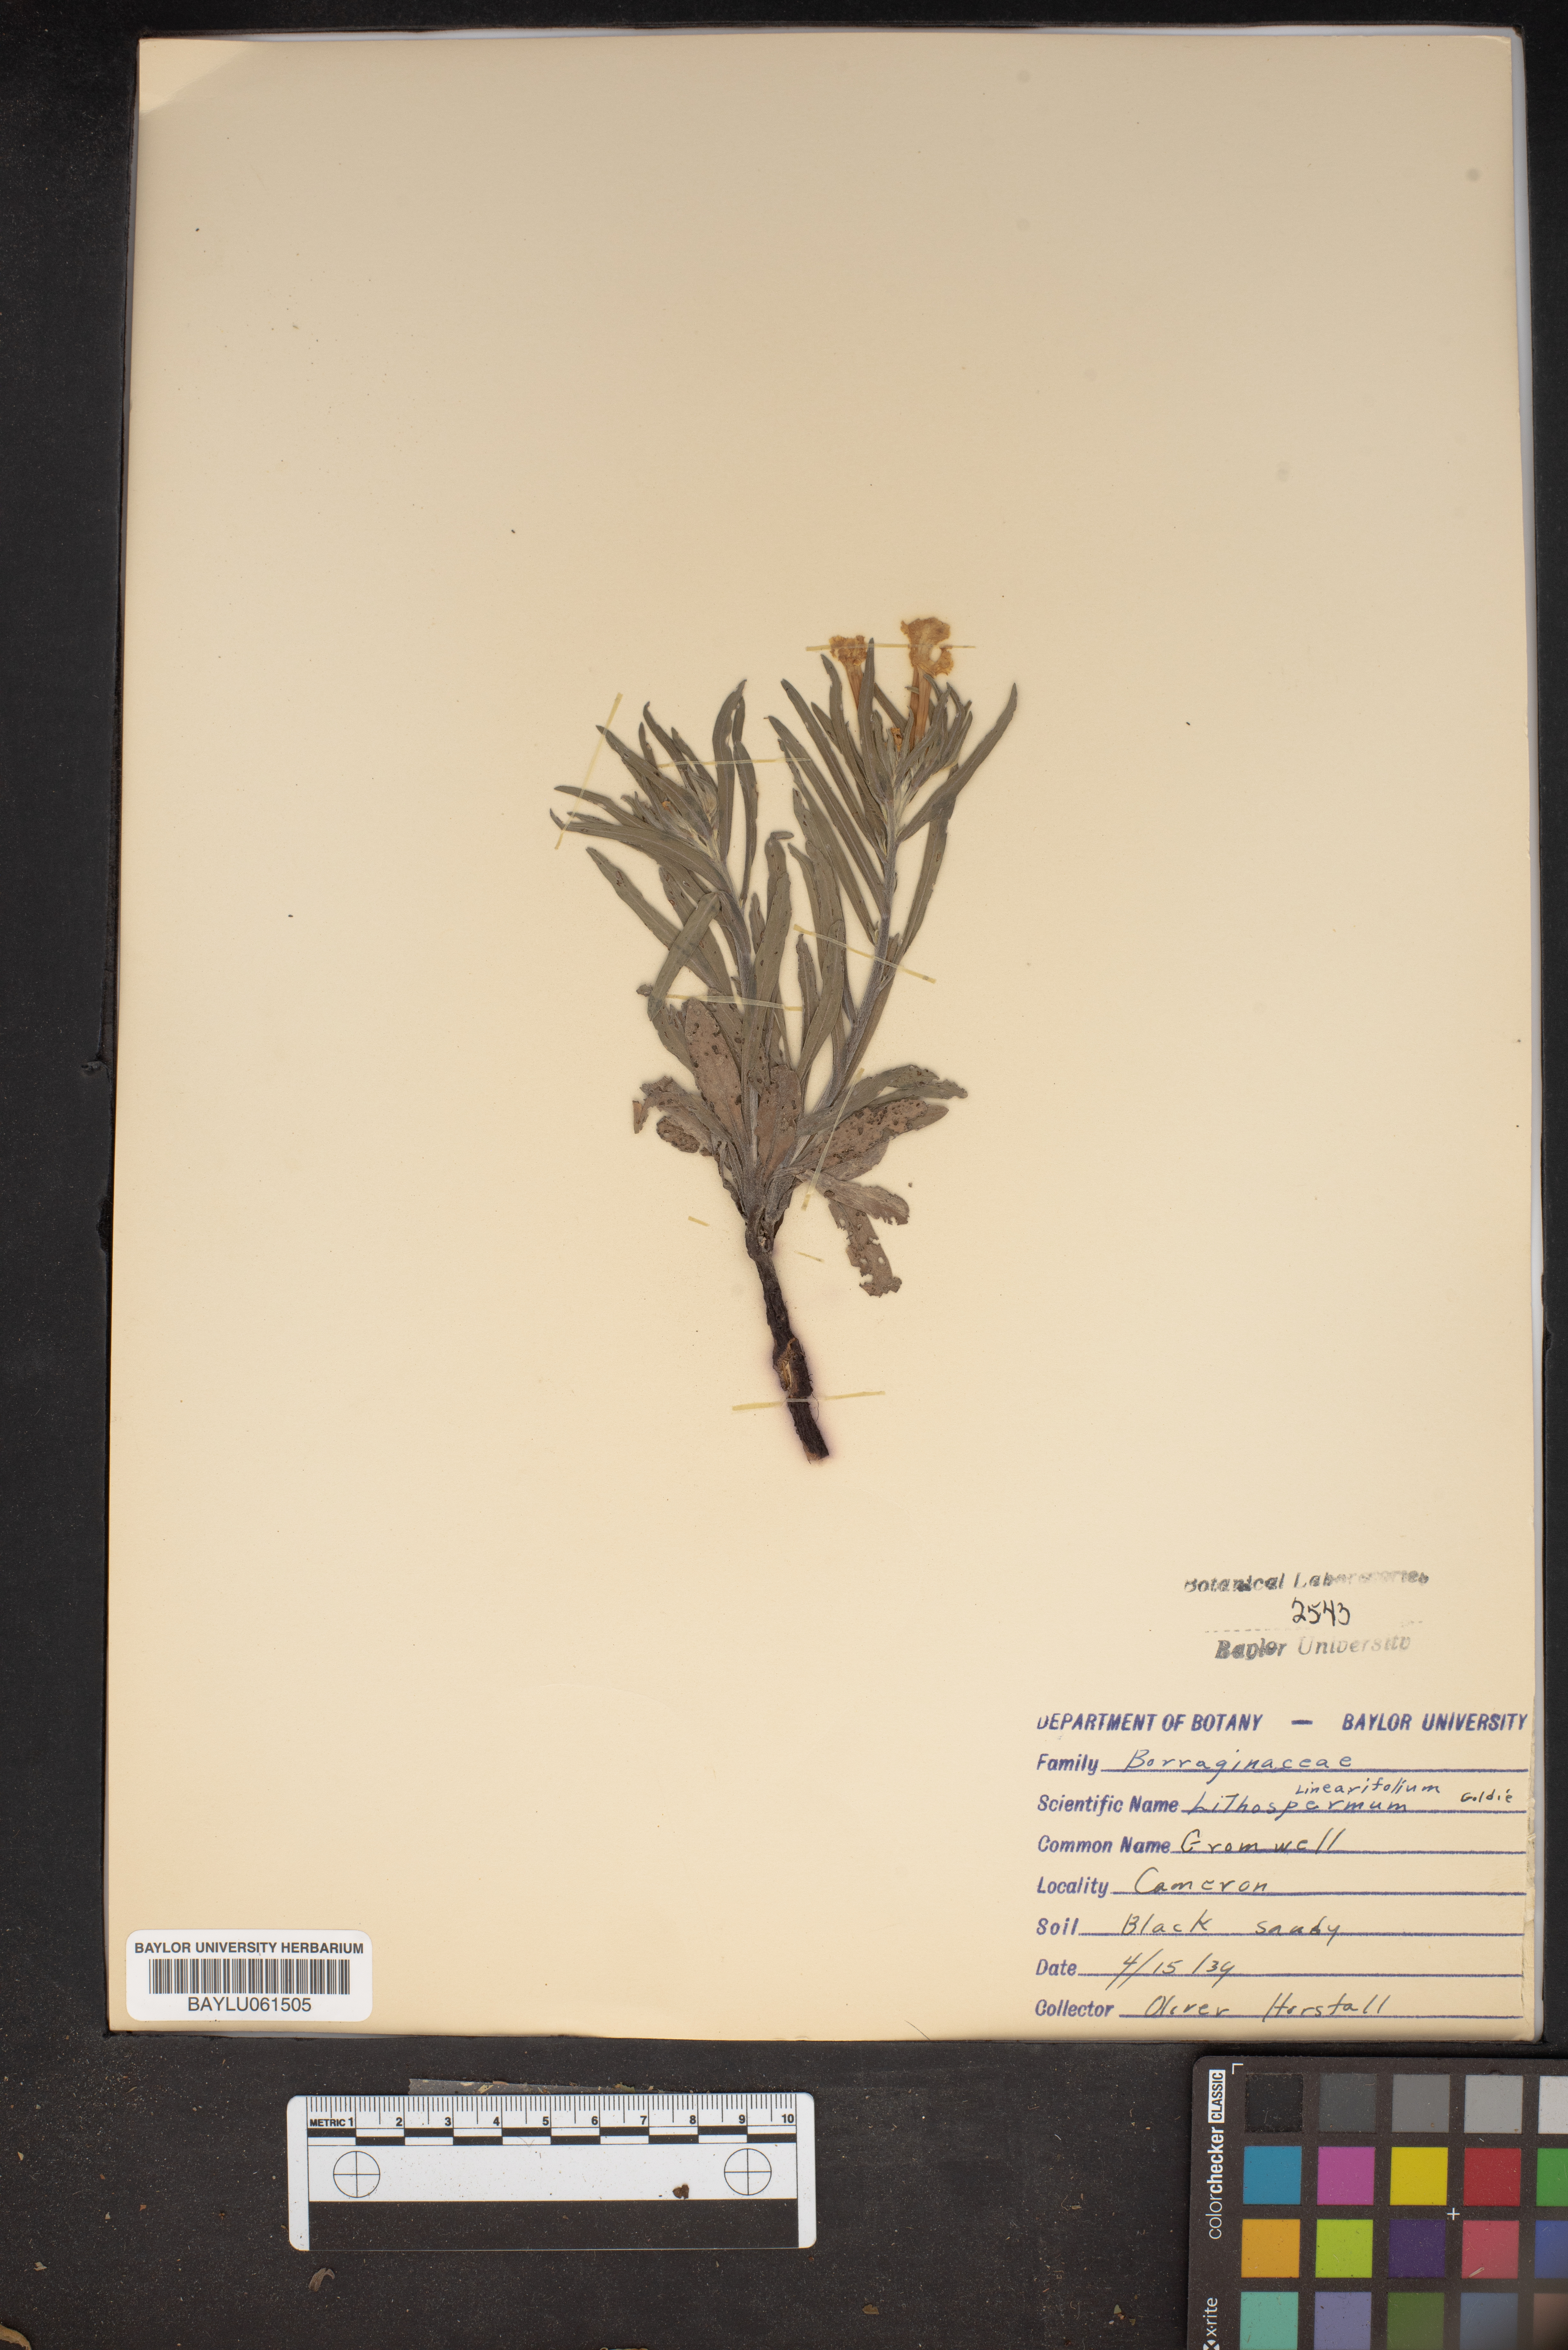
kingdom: Plantae
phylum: Tracheophyta
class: Magnoliopsida
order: Boraginales
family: Boraginaceae
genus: Lithospermum
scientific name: Lithospermum incisum
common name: Fringed gromwell
